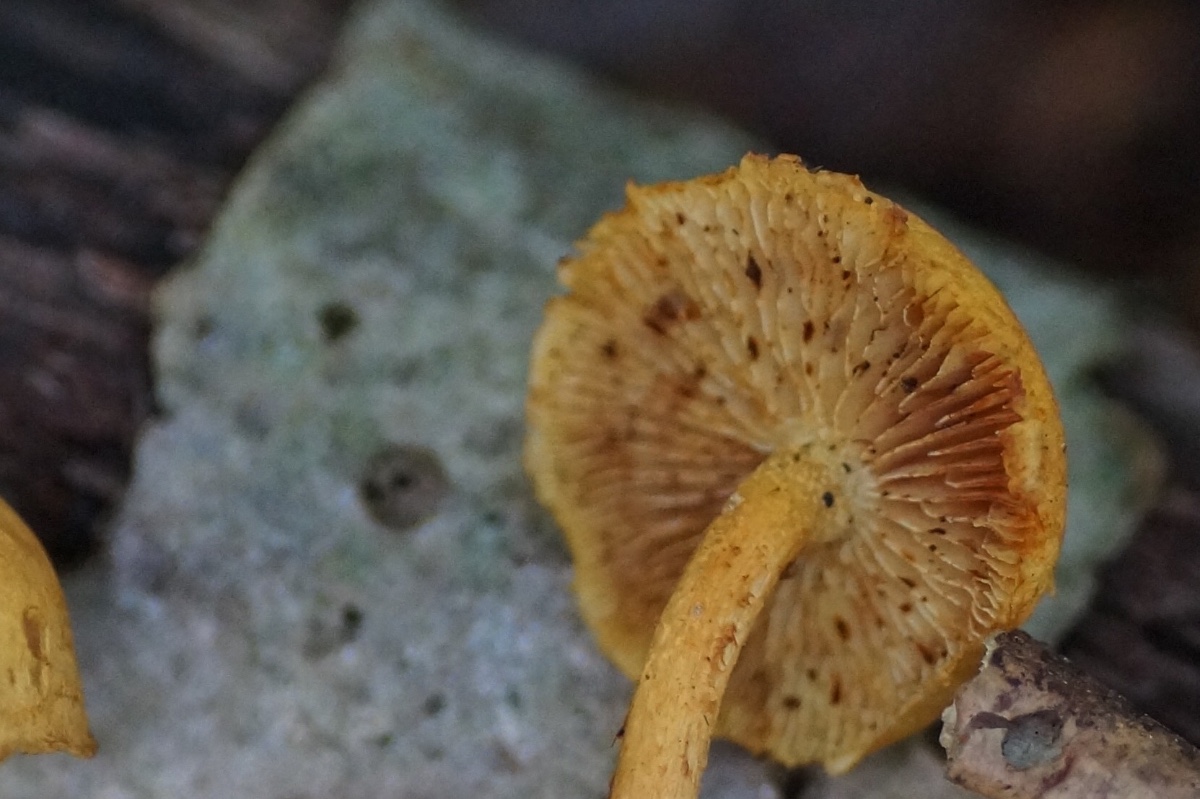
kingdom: Fungi
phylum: Basidiomycota
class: Agaricomycetes
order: Agaricales
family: Strophariaceae
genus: Pholiota
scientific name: Pholiota tuberculosa
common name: finskællet skælhat
